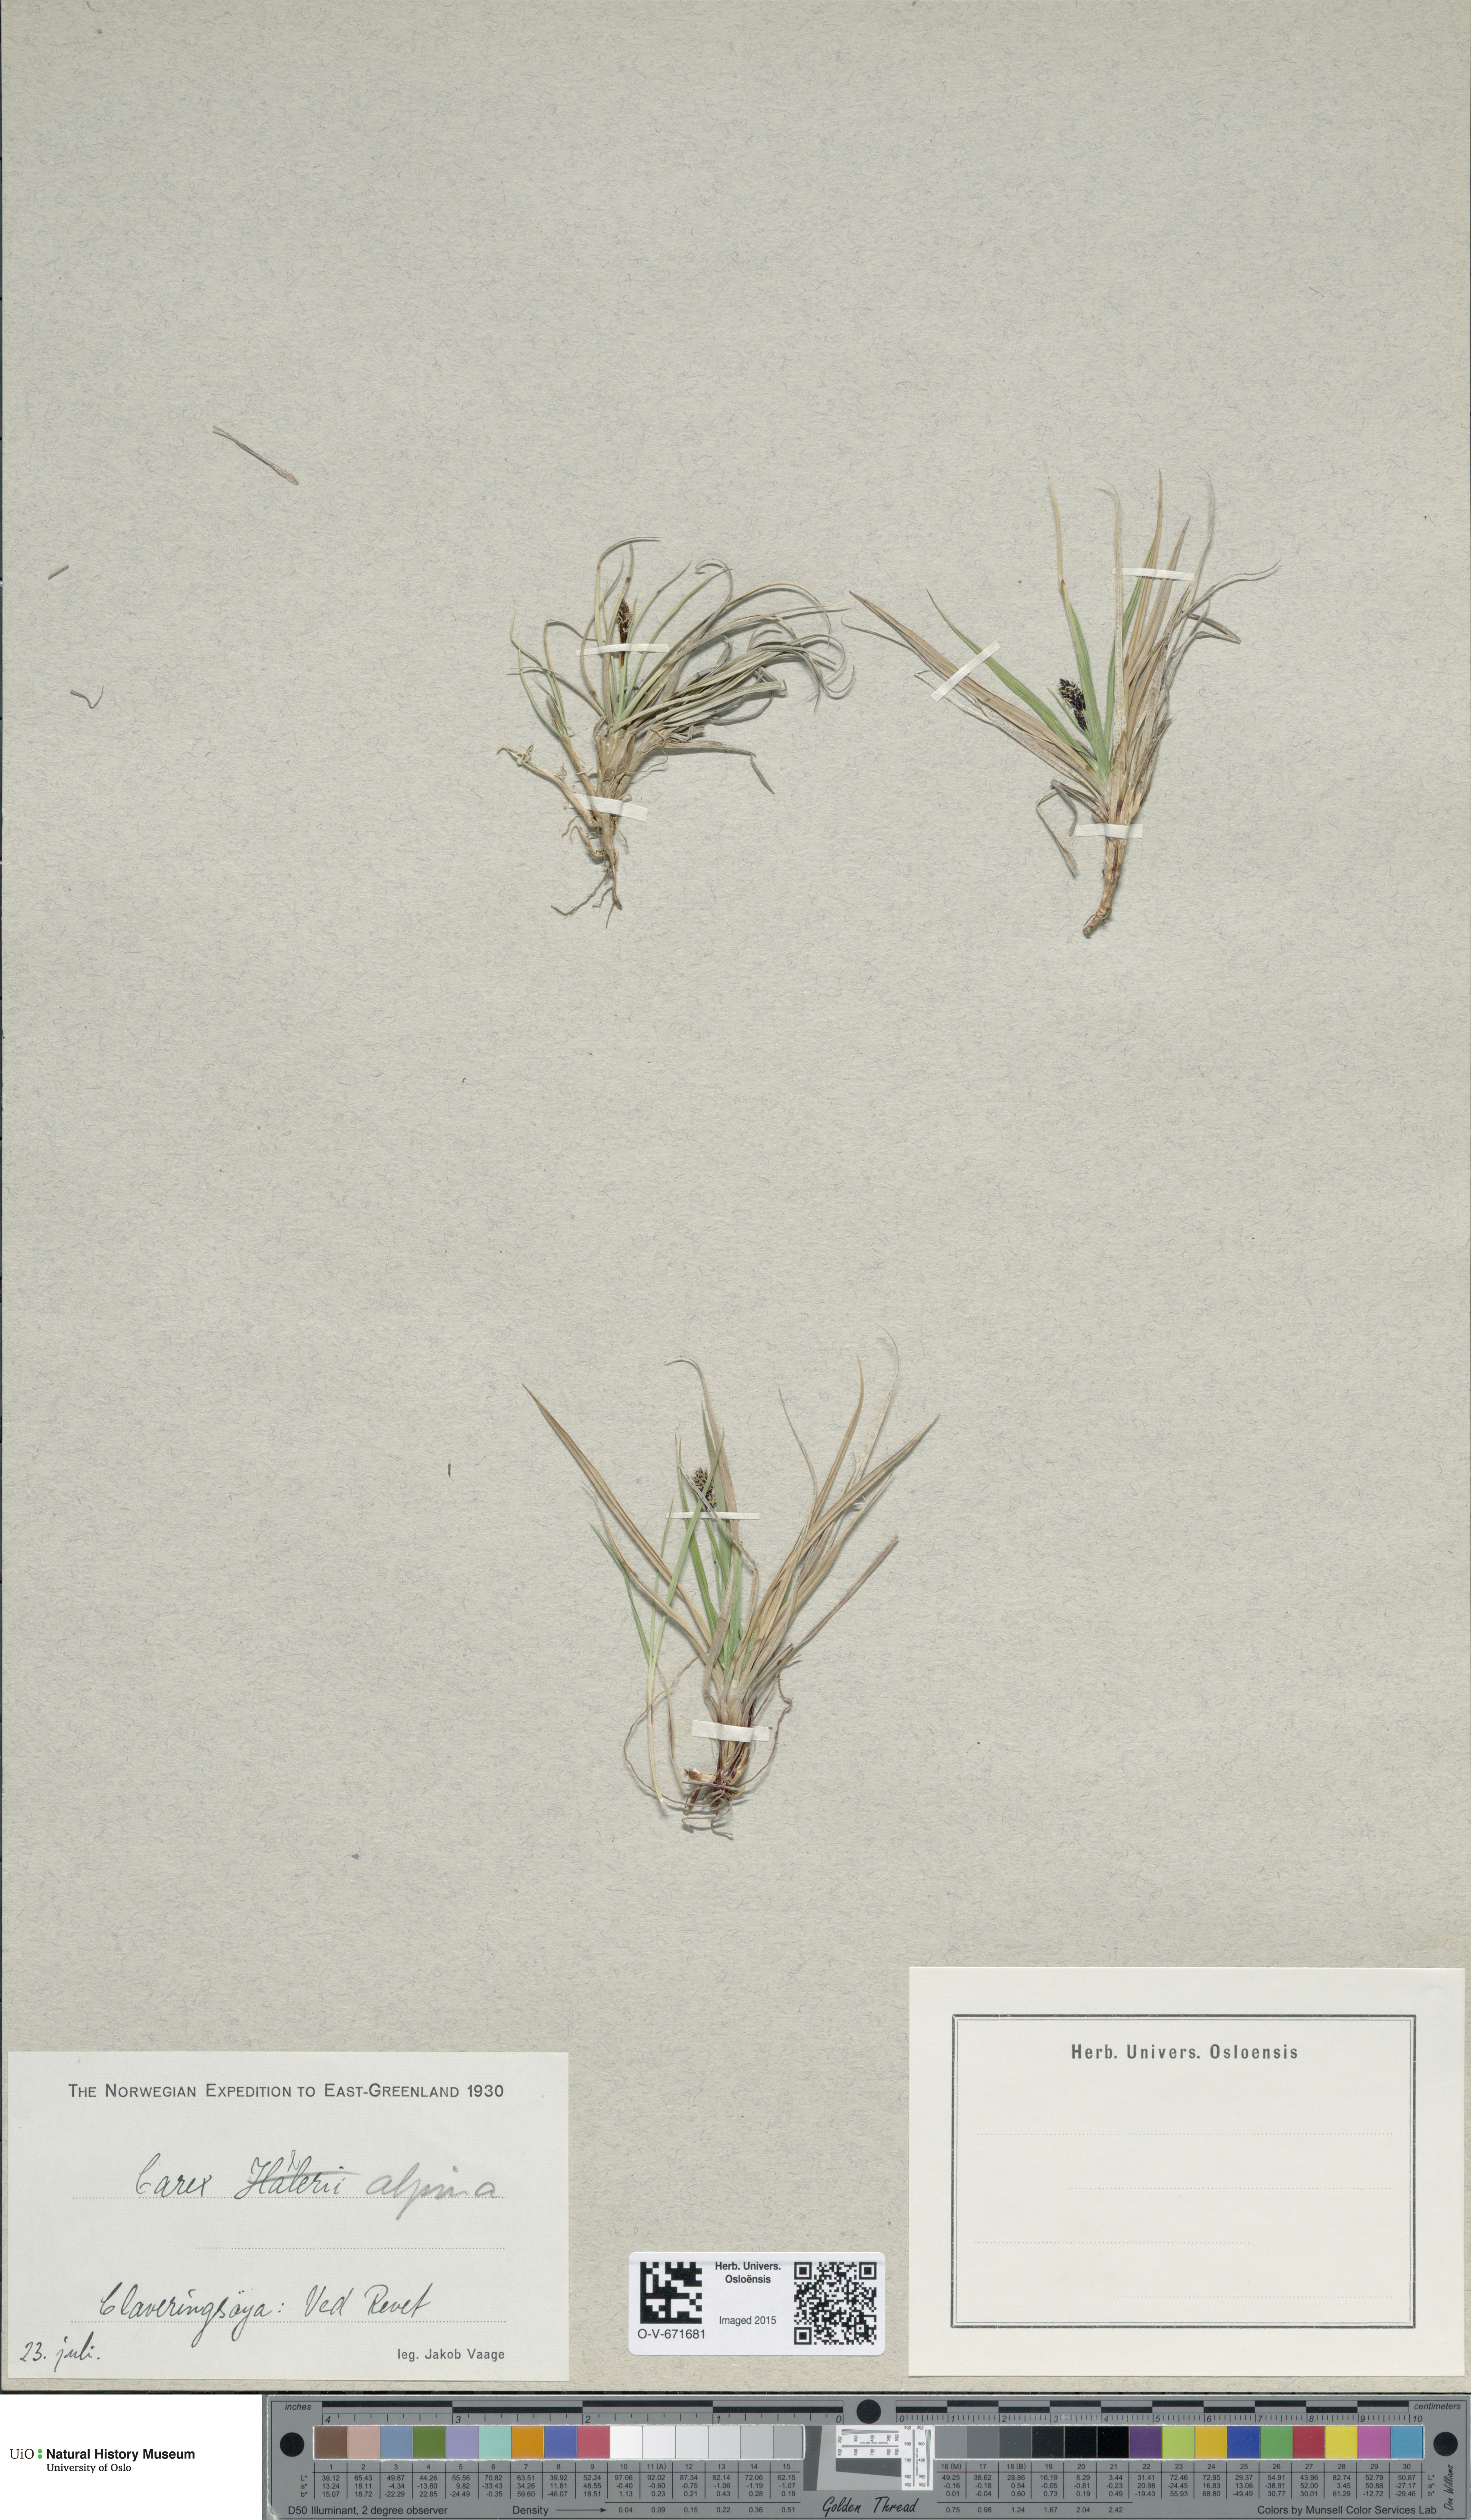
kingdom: Plantae
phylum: Tracheophyta
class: Liliopsida
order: Poales
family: Cyperaceae
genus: Carex
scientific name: Carex norvegica
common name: Close-headed alpine-sedge
